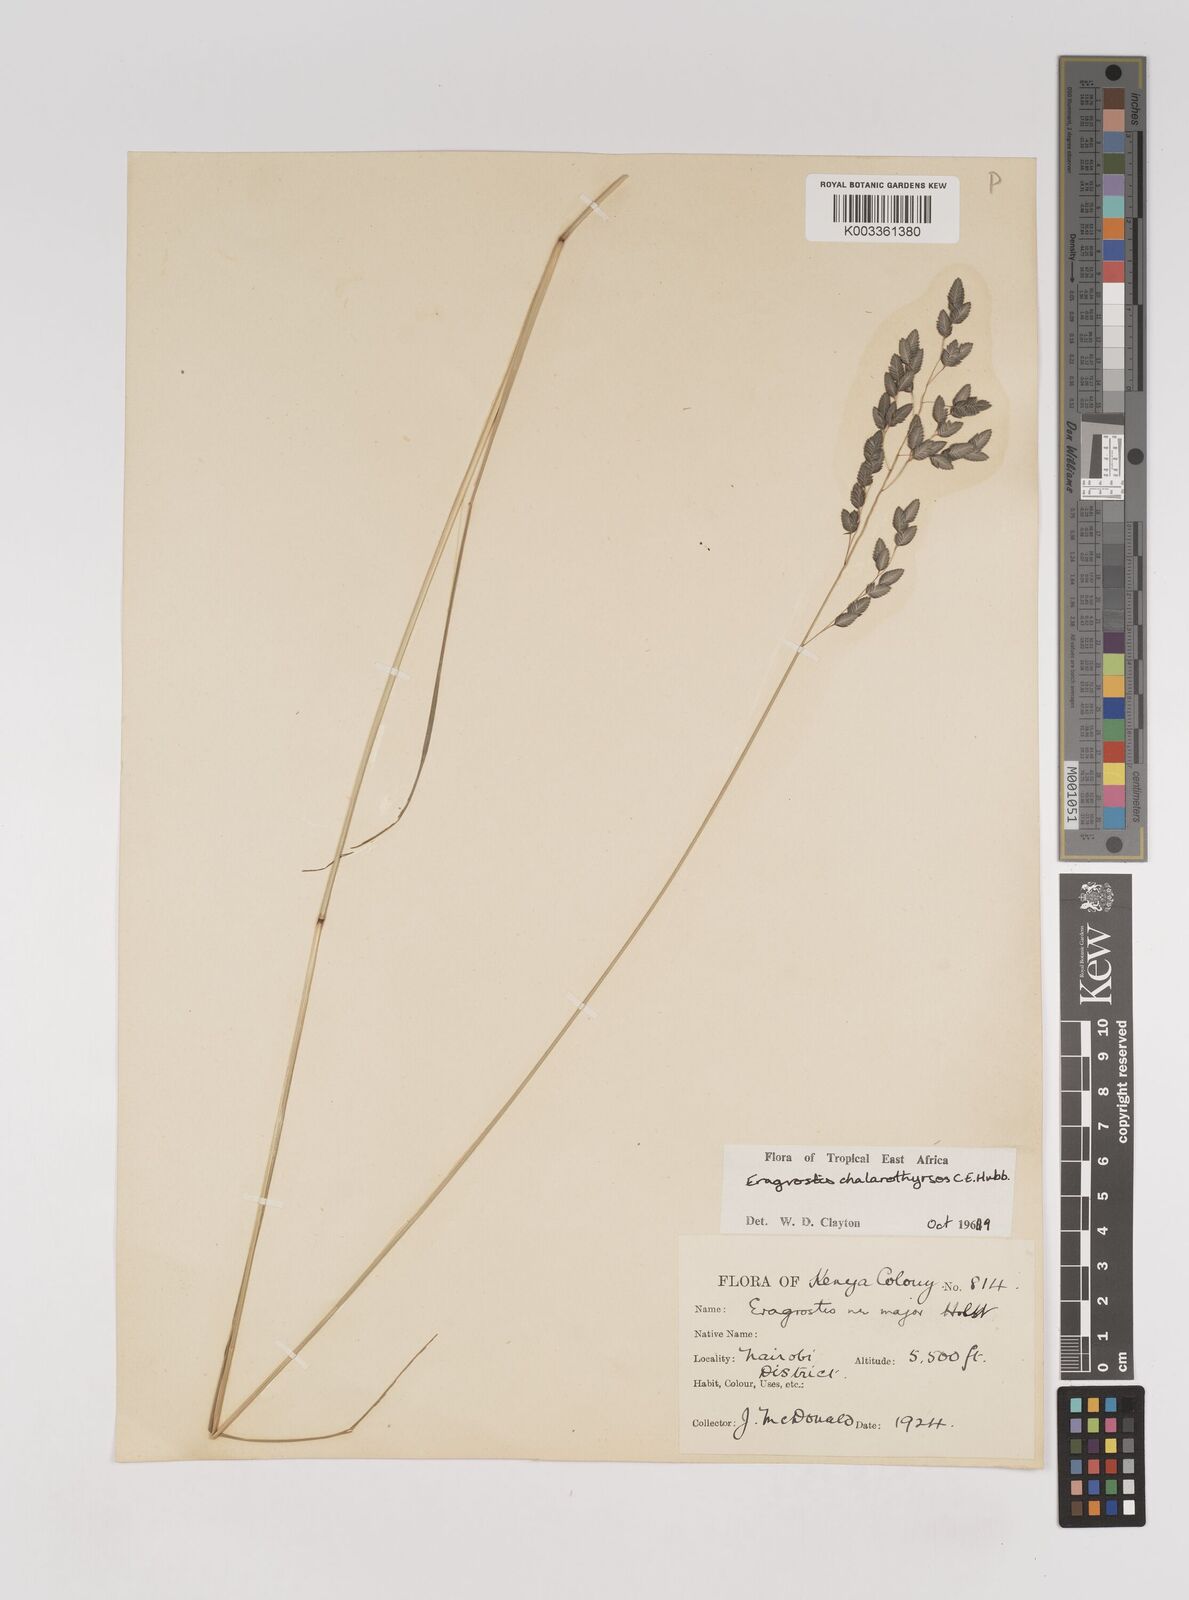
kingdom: Plantae
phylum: Tracheophyta
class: Liliopsida
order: Poales
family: Poaceae
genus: Eragrostis
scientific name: Eragrostis chalarothyrsos
